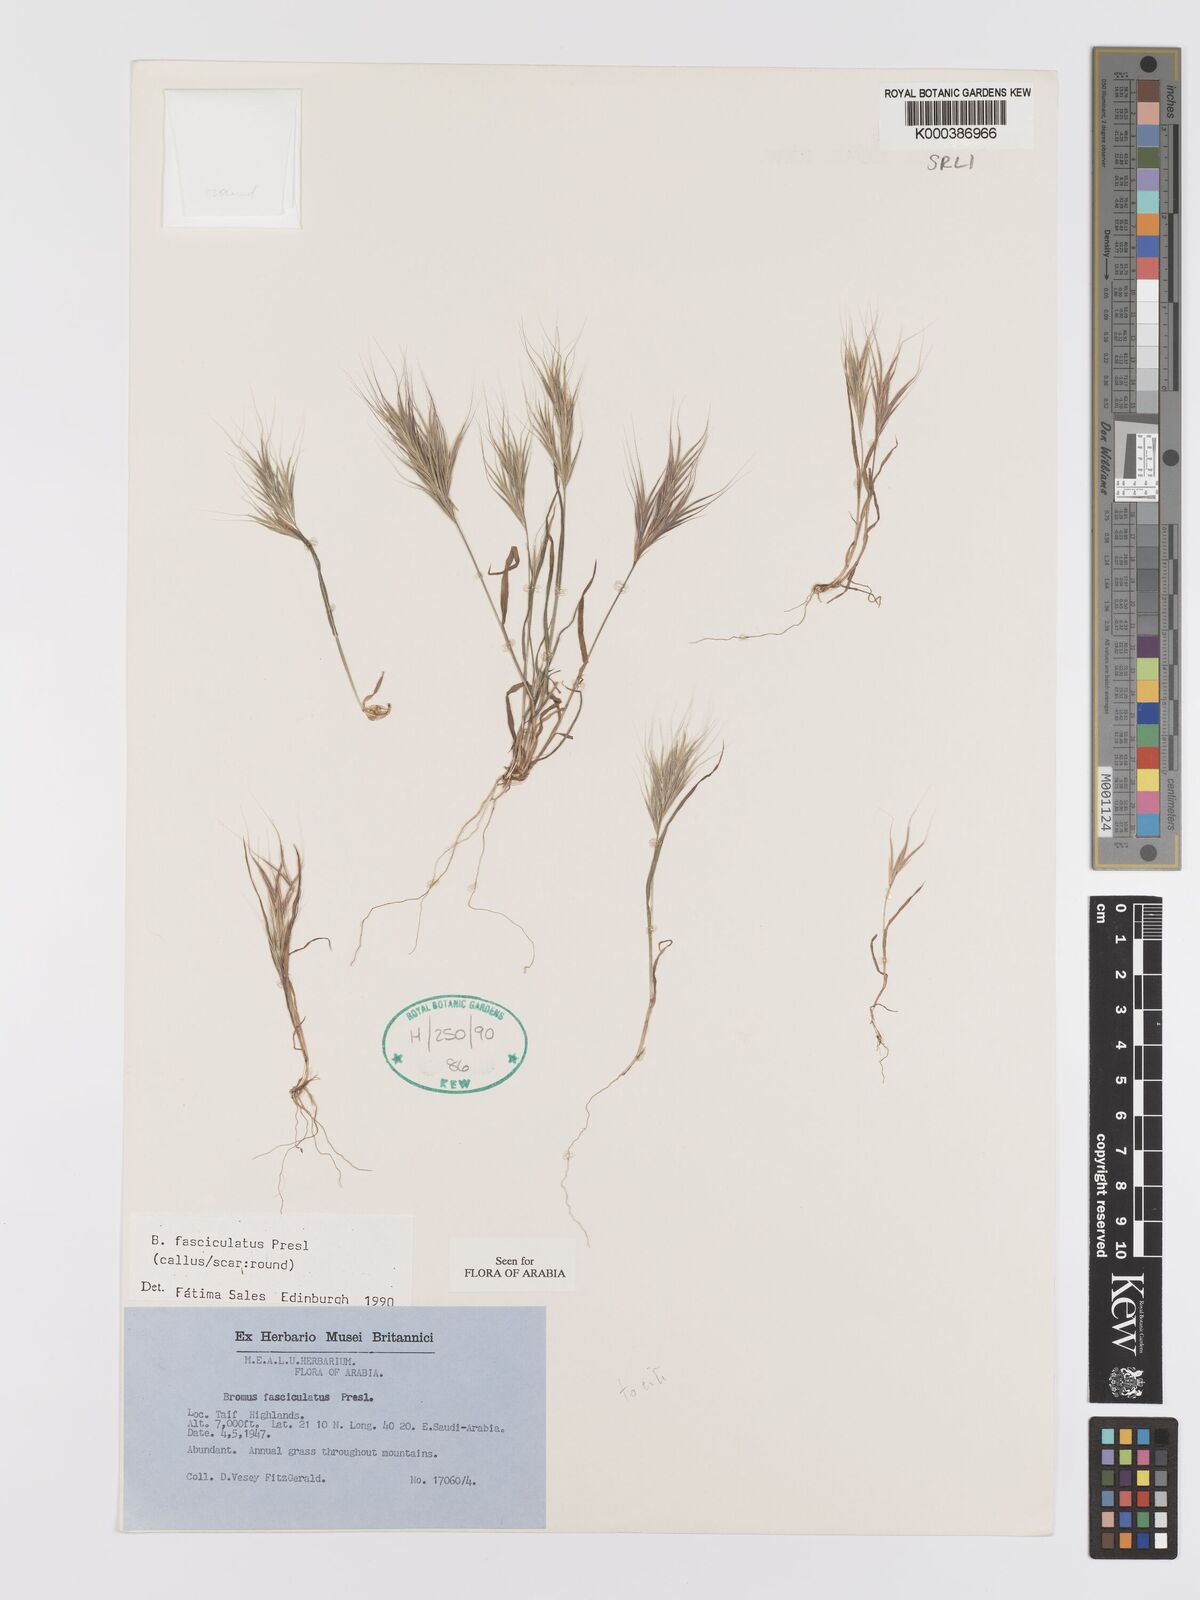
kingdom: Plantae
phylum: Tracheophyta
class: Liliopsida
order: Poales
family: Poaceae
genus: Bromus
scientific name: Bromus fasciculatus
